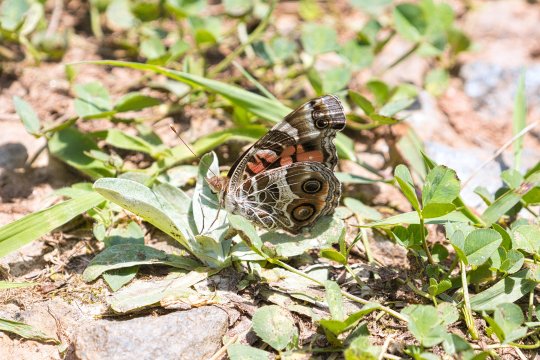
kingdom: Animalia
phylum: Arthropoda
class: Insecta
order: Lepidoptera
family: Nymphalidae
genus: Vanessa
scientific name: Vanessa virginiensis
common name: American Lady
